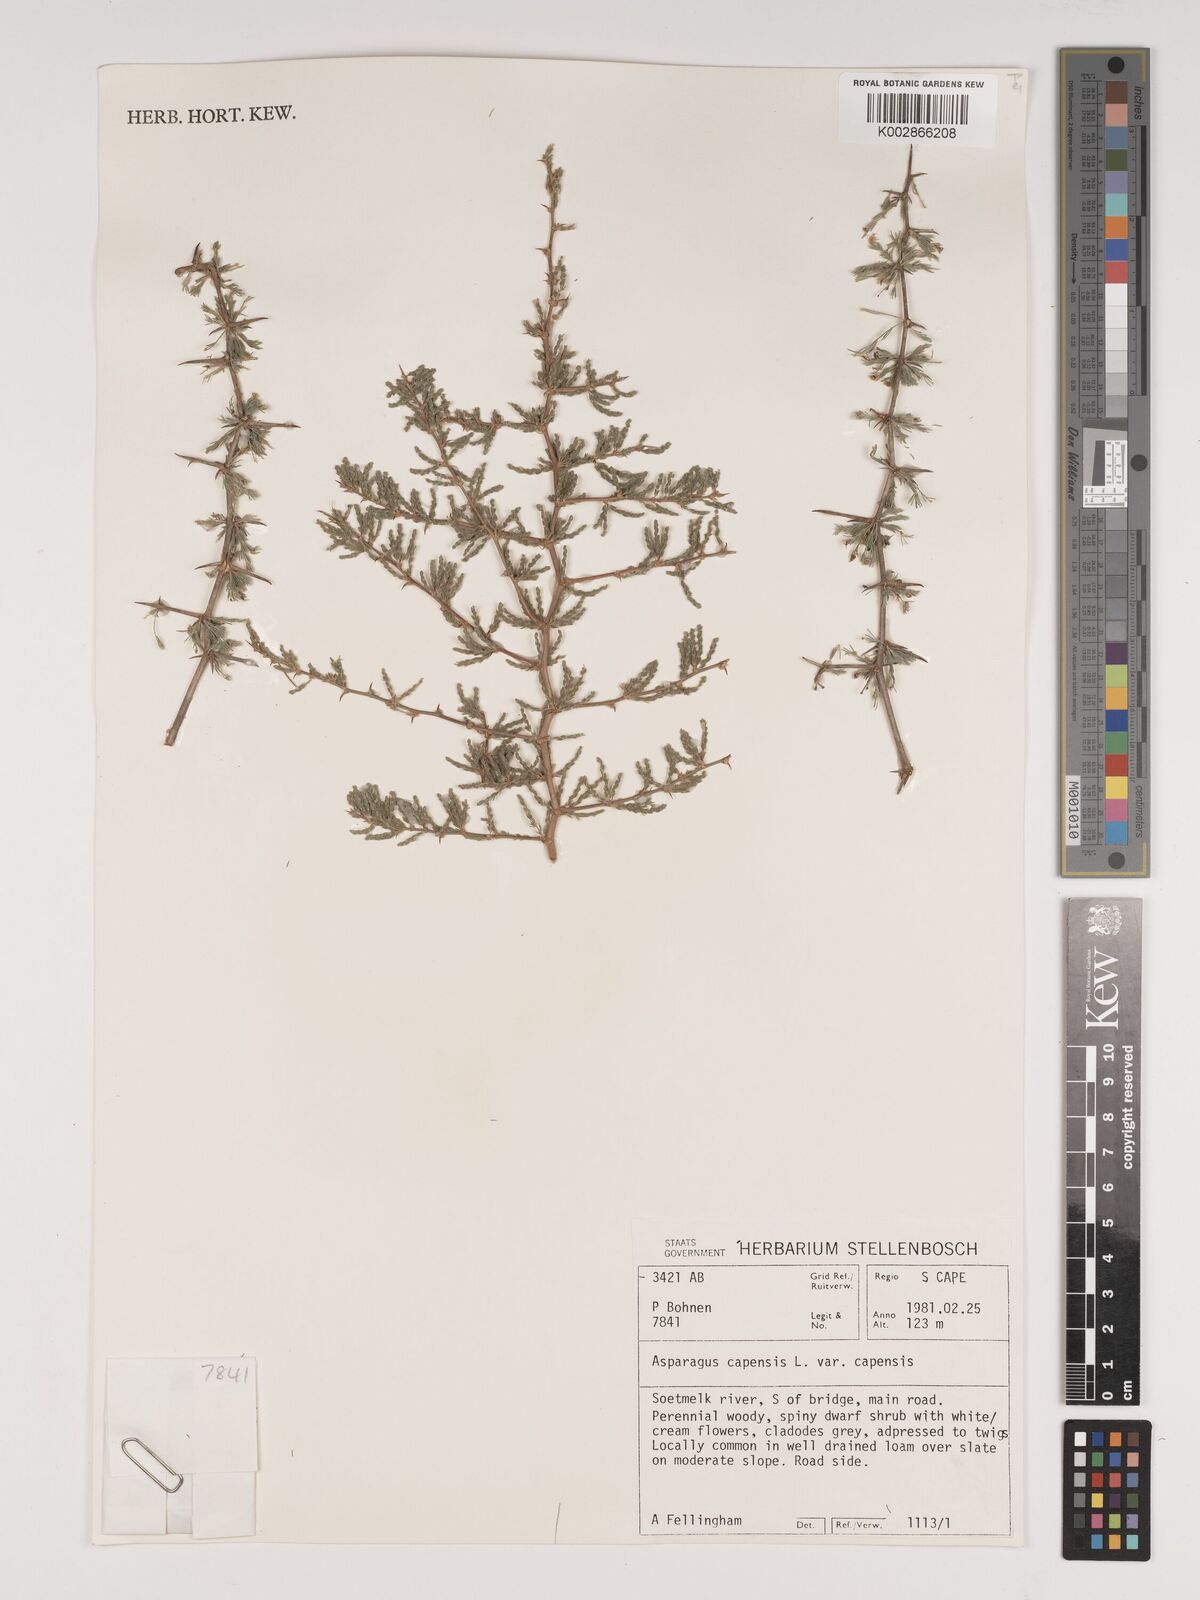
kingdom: Plantae
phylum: Tracheophyta
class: Liliopsida
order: Asparagales
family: Asparagaceae
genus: Asparagus
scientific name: Asparagus capensis
